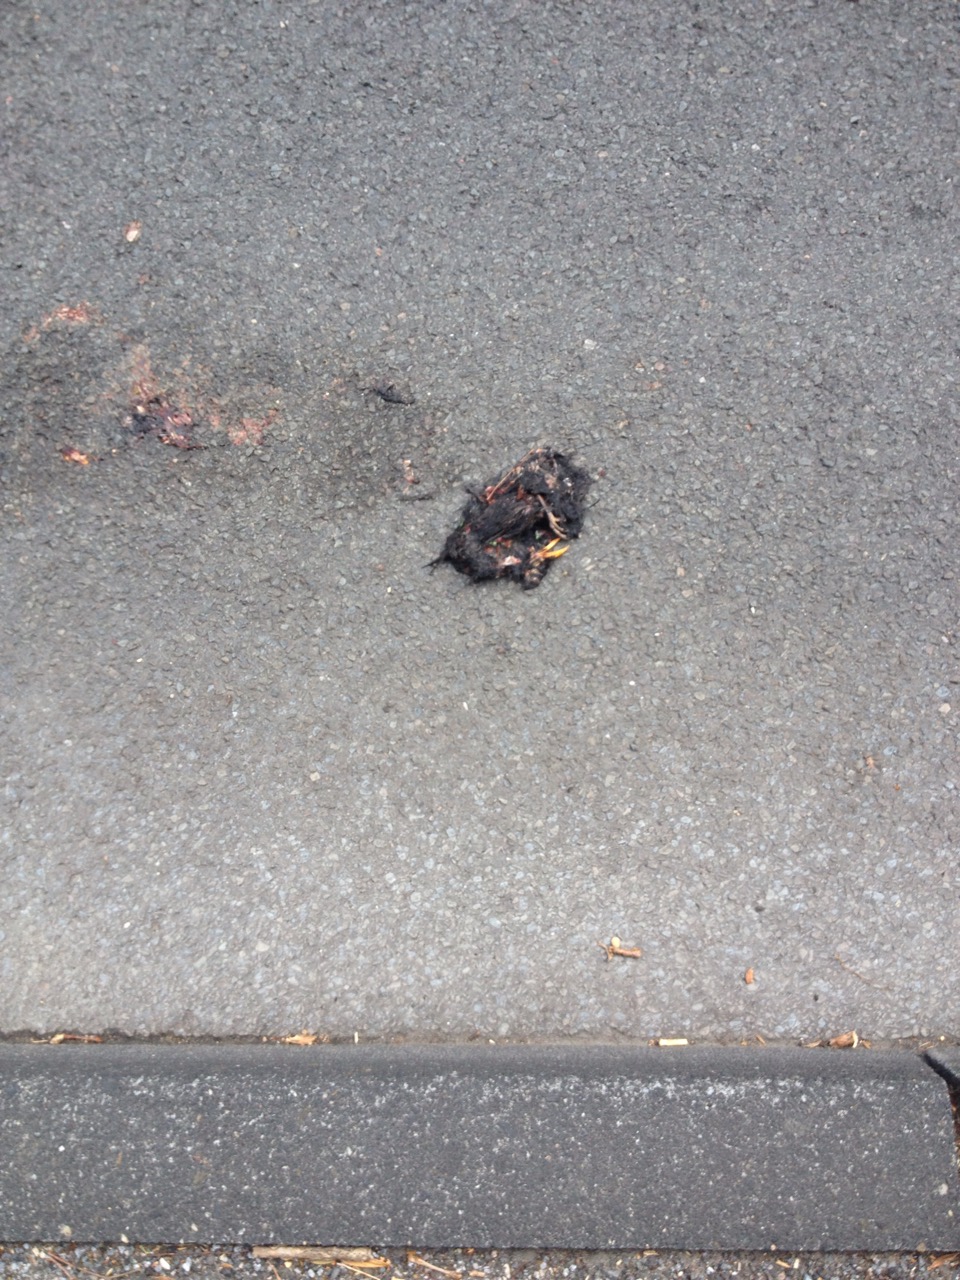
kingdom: Animalia
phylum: Chordata
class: Aves
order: Passeriformes
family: Turdidae
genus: Turdus
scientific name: Turdus merula
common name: Common blackbird
